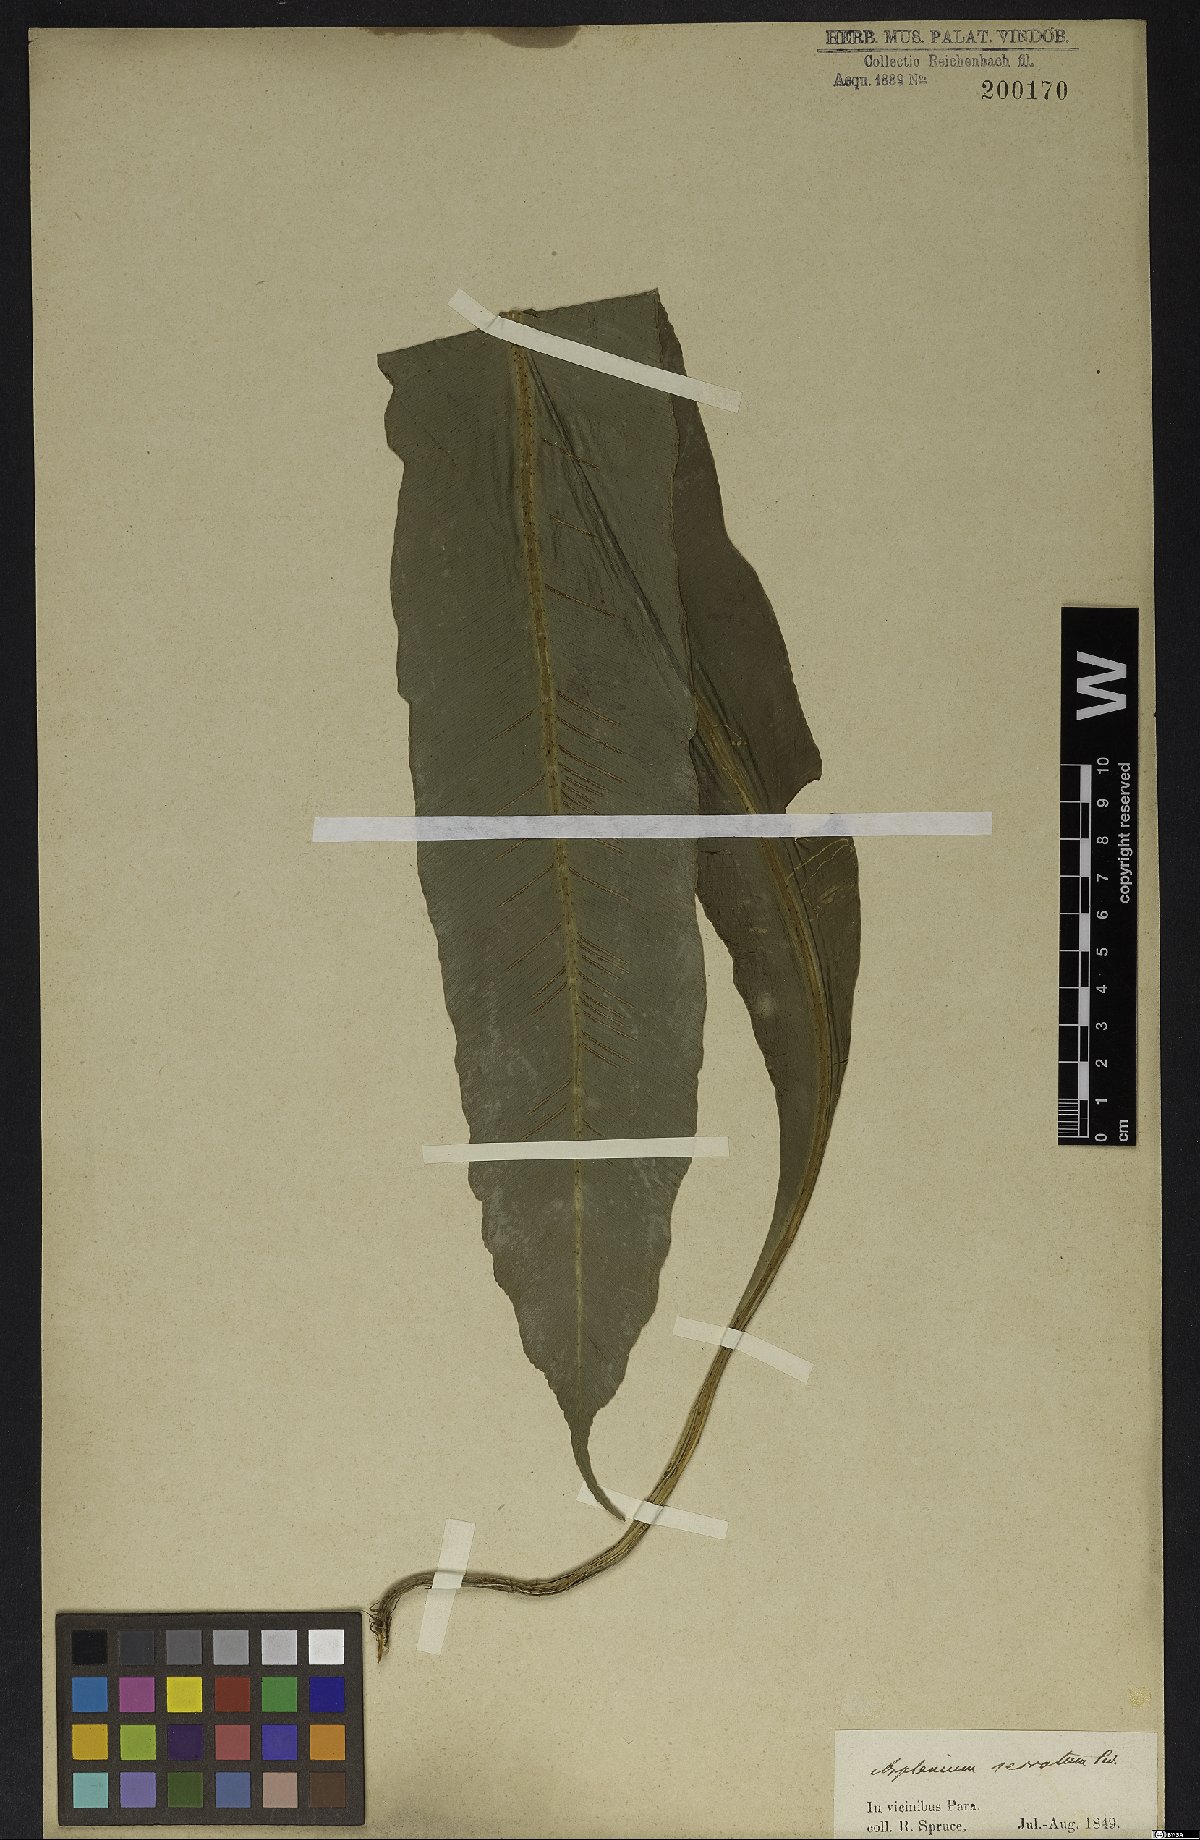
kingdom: Plantae
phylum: Tracheophyta
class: Polypodiopsida
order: Polypodiales
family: Aspleniaceae
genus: Asplenium
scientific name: Asplenium serratum
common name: Wild birdnest fern
